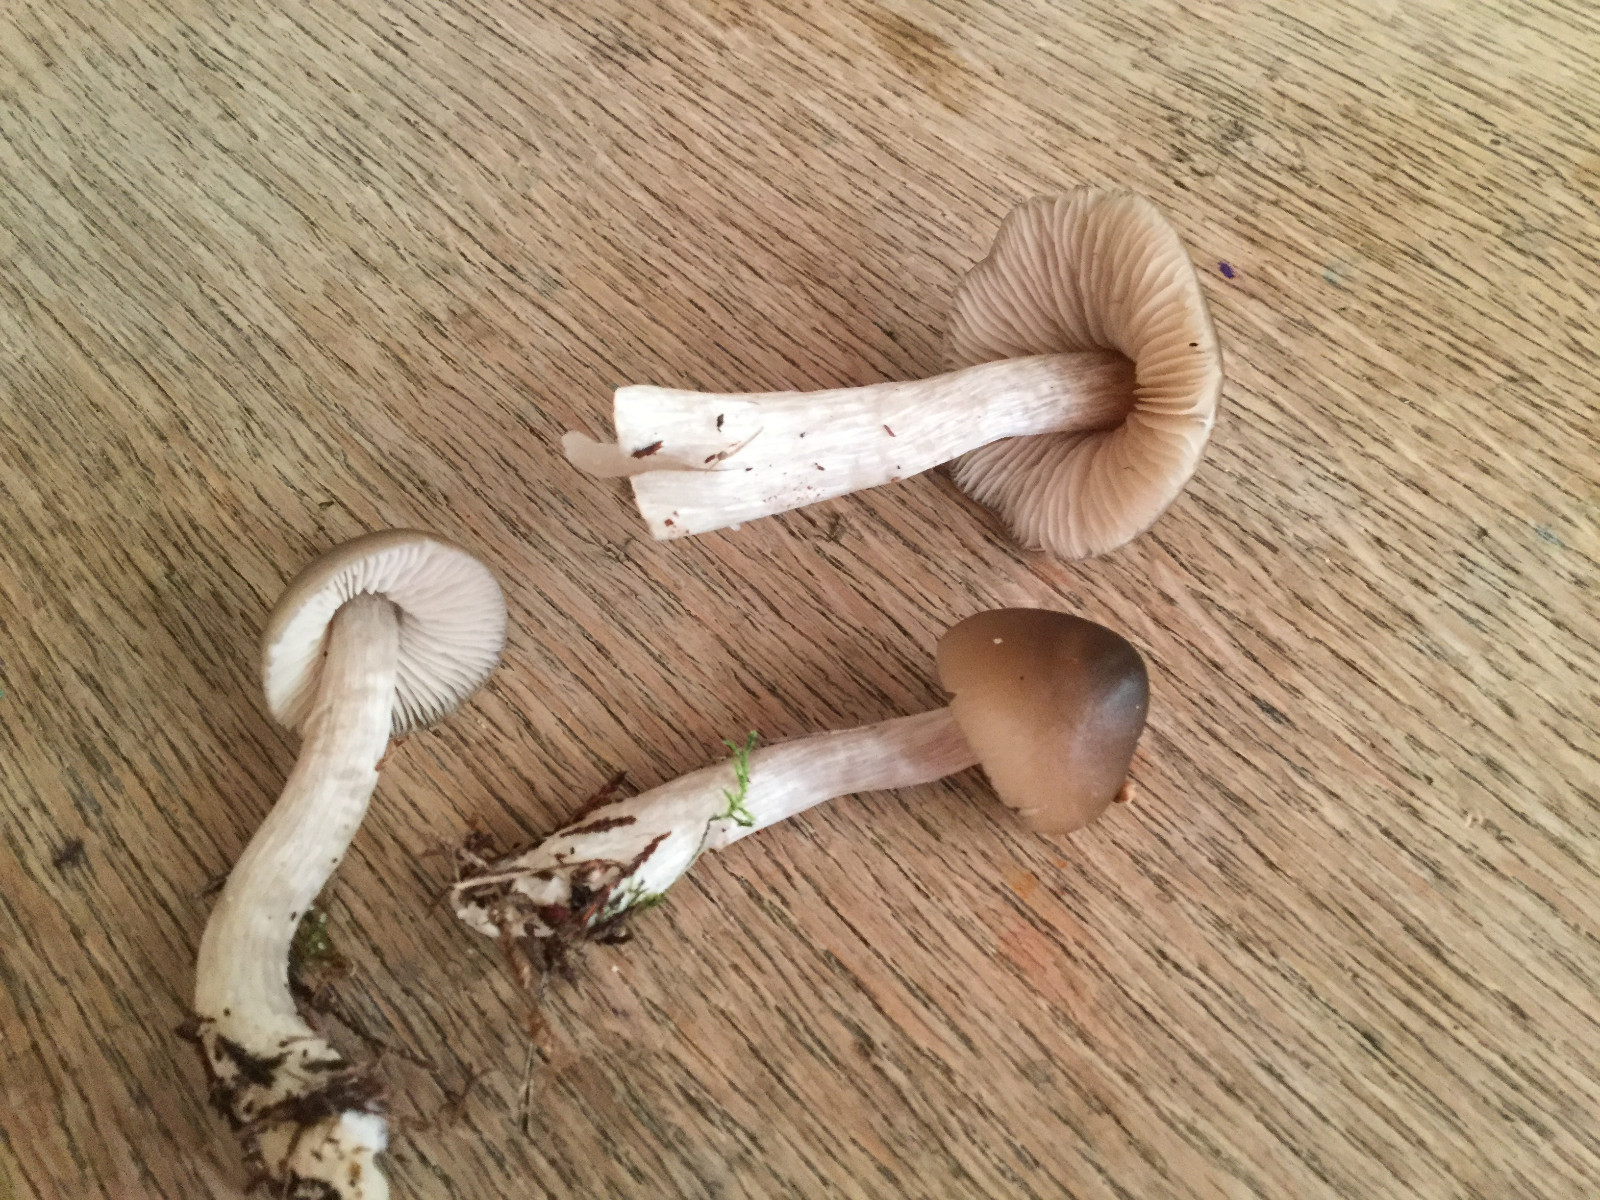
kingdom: Fungi
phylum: Basidiomycota
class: Agaricomycetes
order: Agaricales
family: Entolomataceae
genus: Entocybe
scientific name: Entocybe turbida
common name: plantage-rødblad
